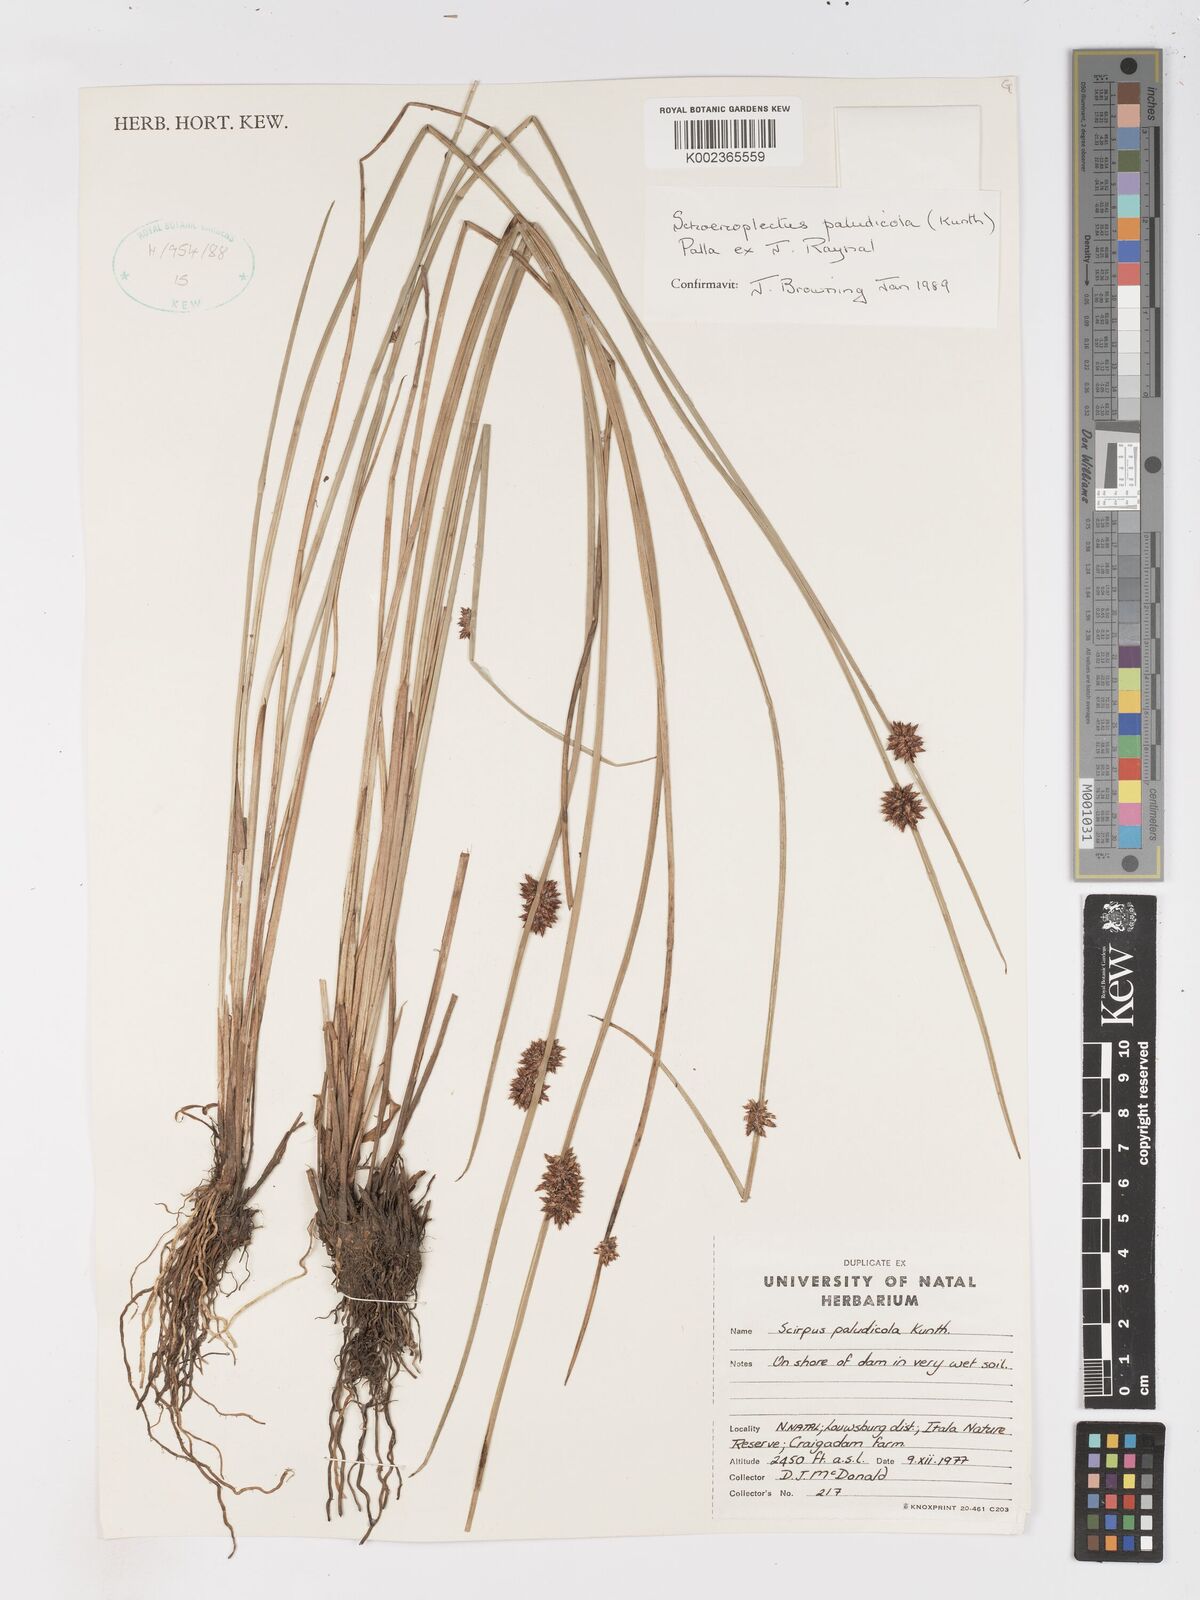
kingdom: Plantae
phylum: Tracheophyta
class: Liliopsida
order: Poales
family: Cyperaceae
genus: Schoenoplectiella
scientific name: Schoenoplectiella paludicola
